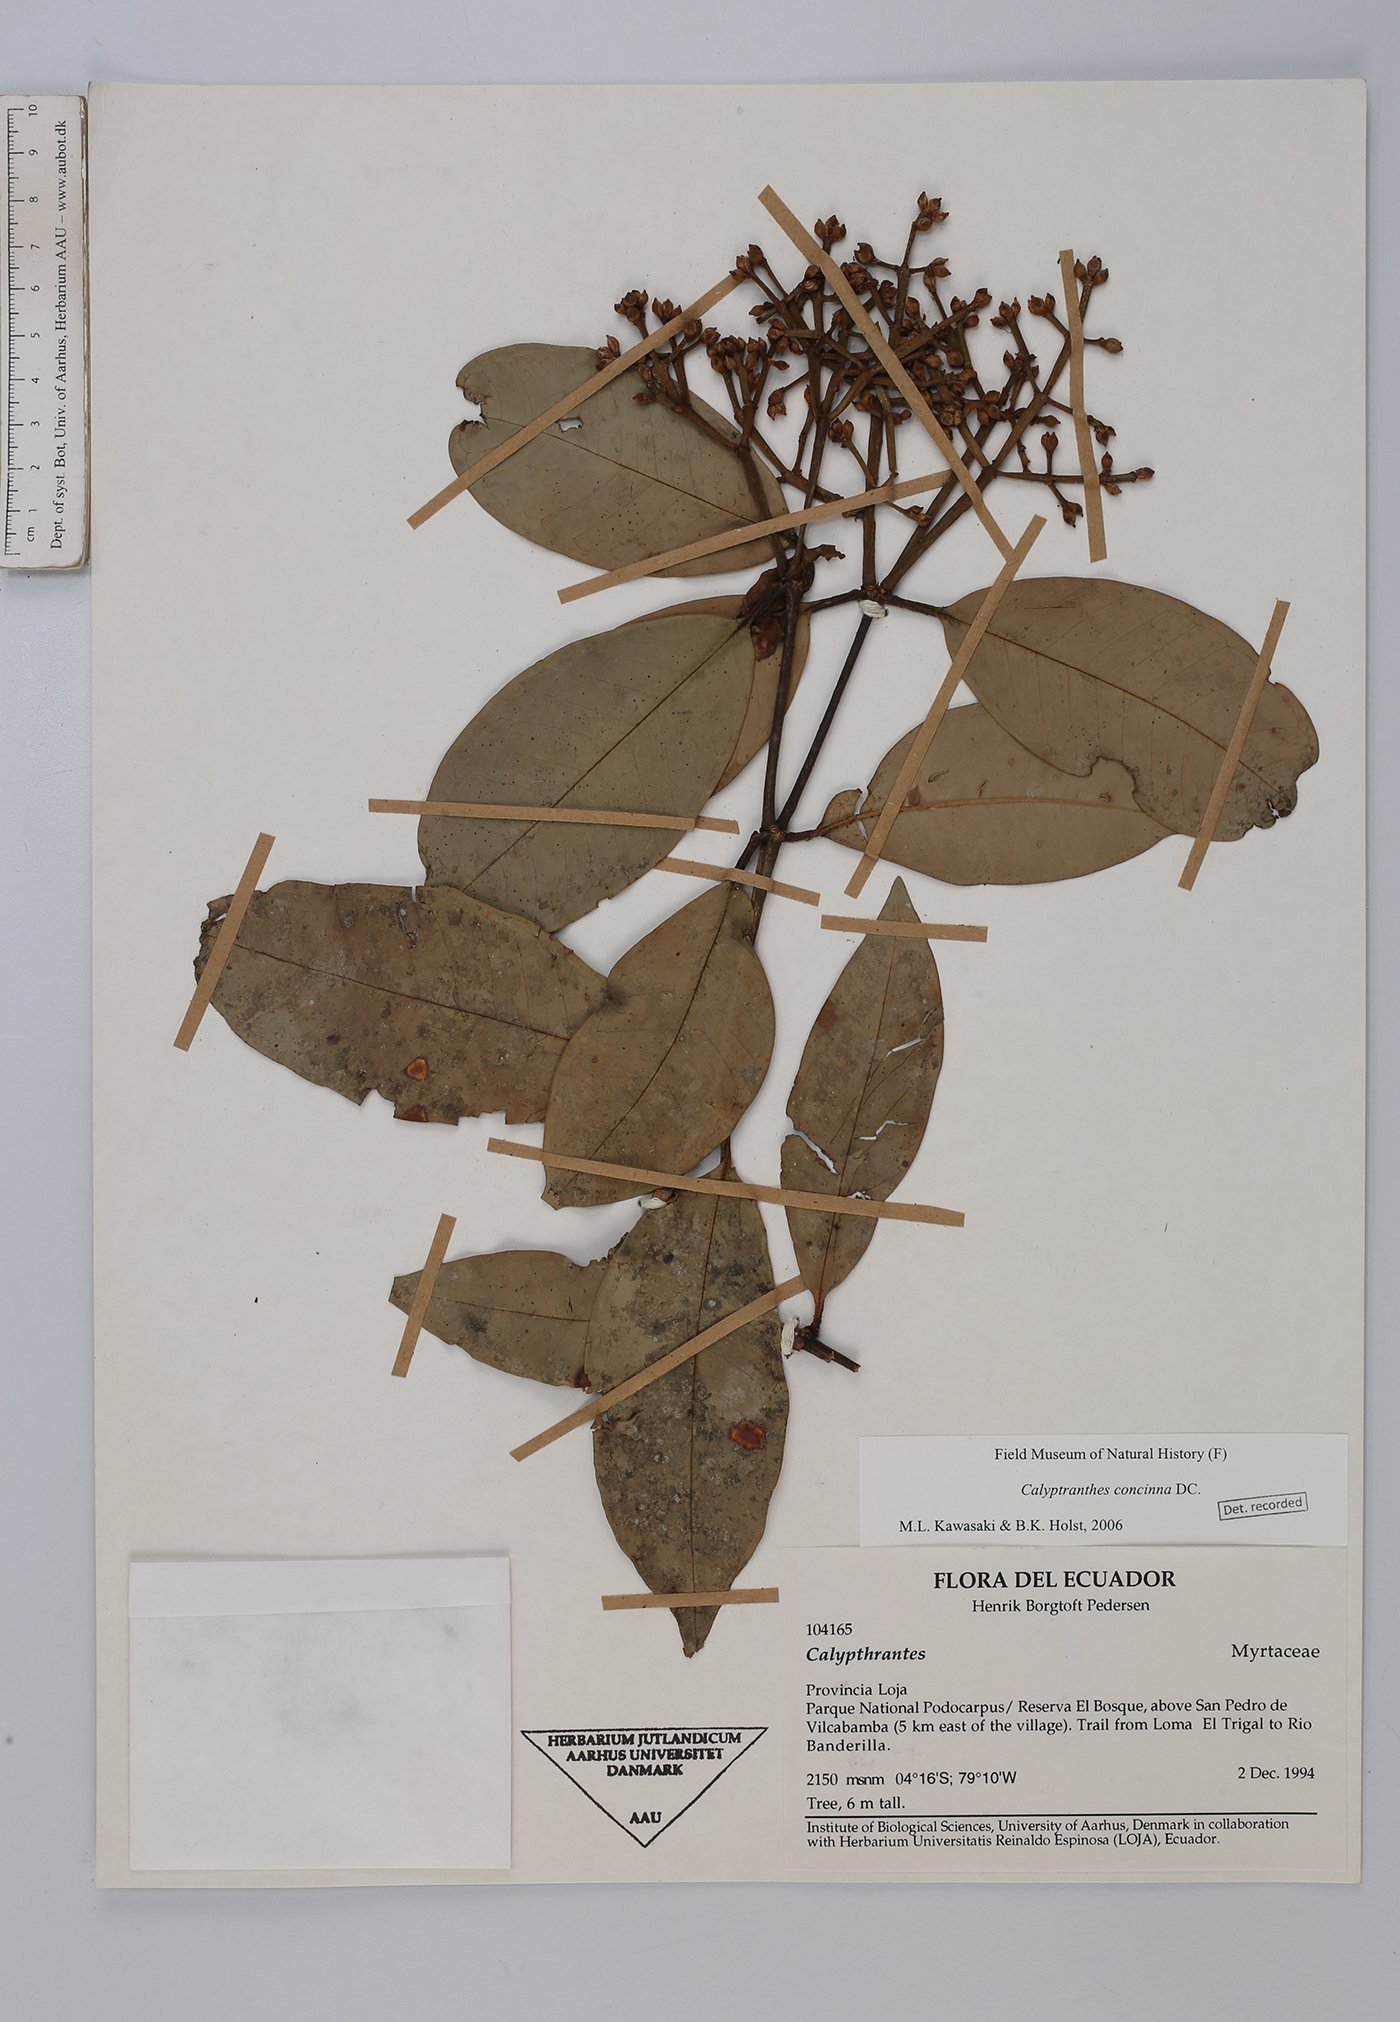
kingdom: Plantae
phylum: Tracheophyta
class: Magnoliopsida
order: Myrtales
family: Myrtaceae
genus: Myrcia
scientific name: Myrcia cruciflora
